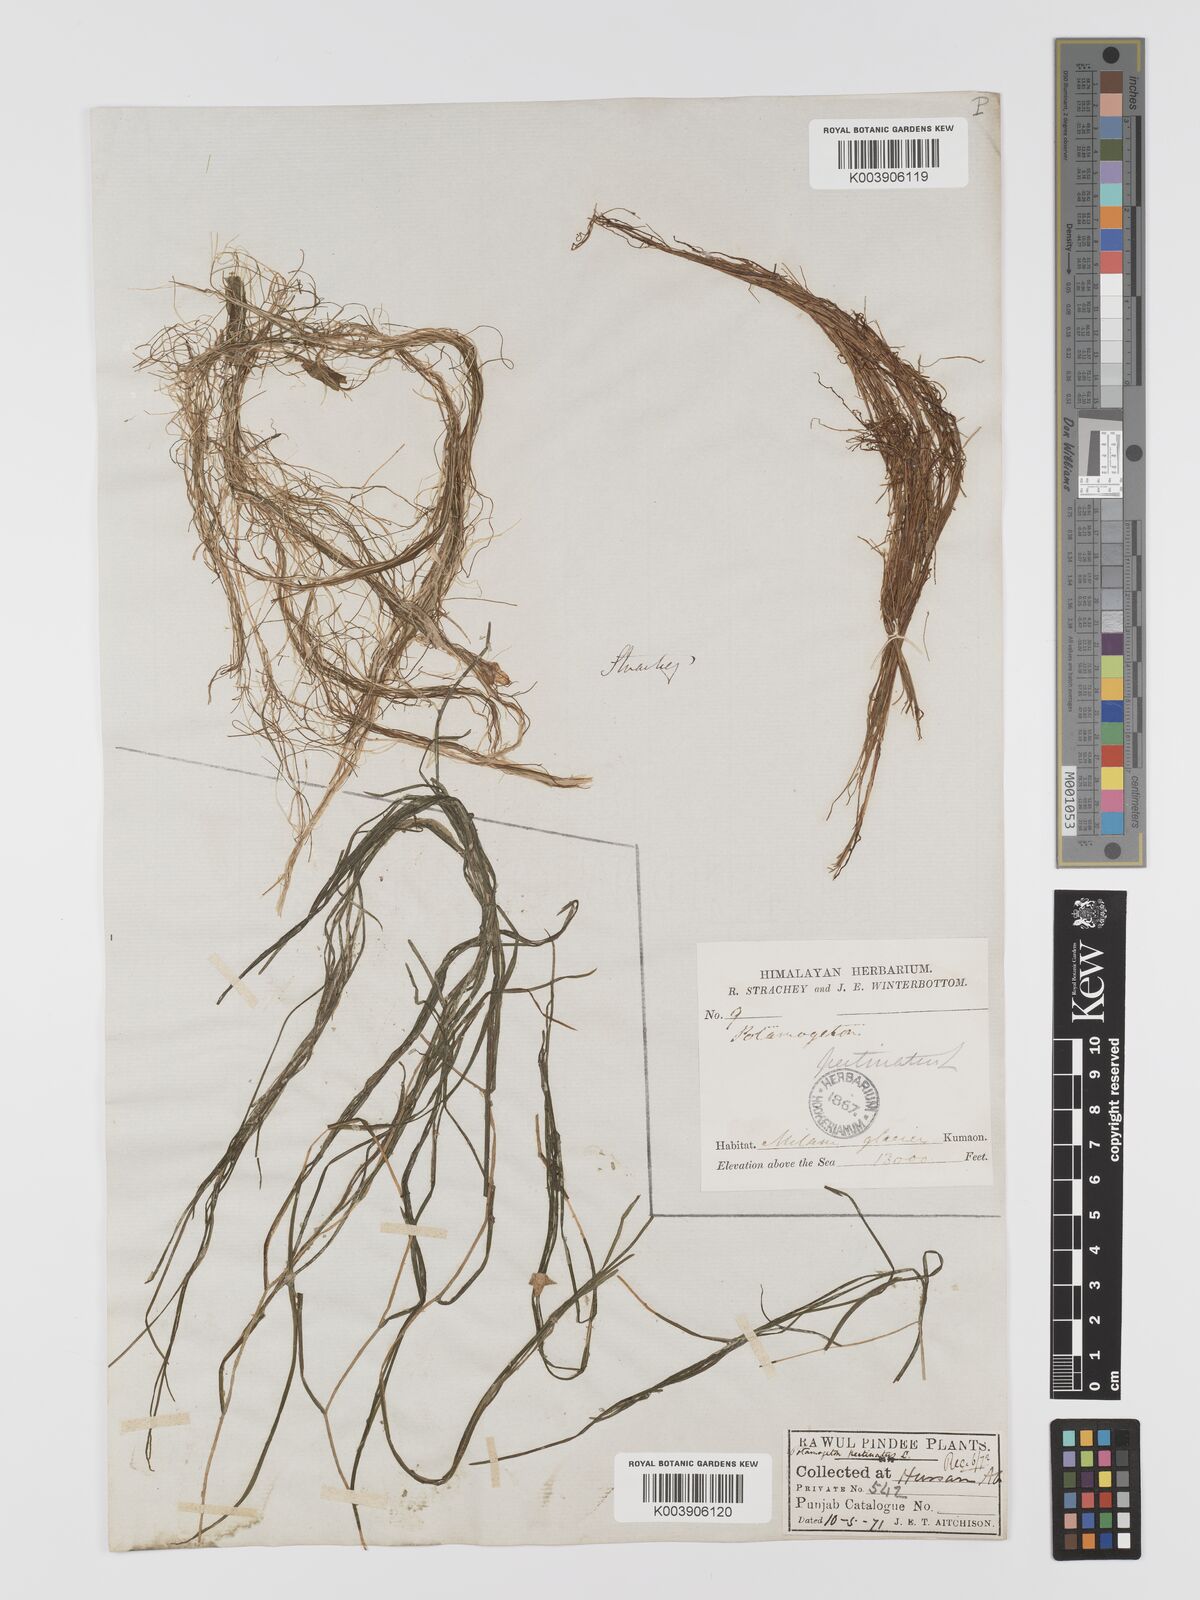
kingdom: Plantae
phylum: Tracheophyta
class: Liliopsida
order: Alismatales
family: Potamogetonaceae
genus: Stuckenia
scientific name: Stuckenia pectinata
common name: Sago pondweed
